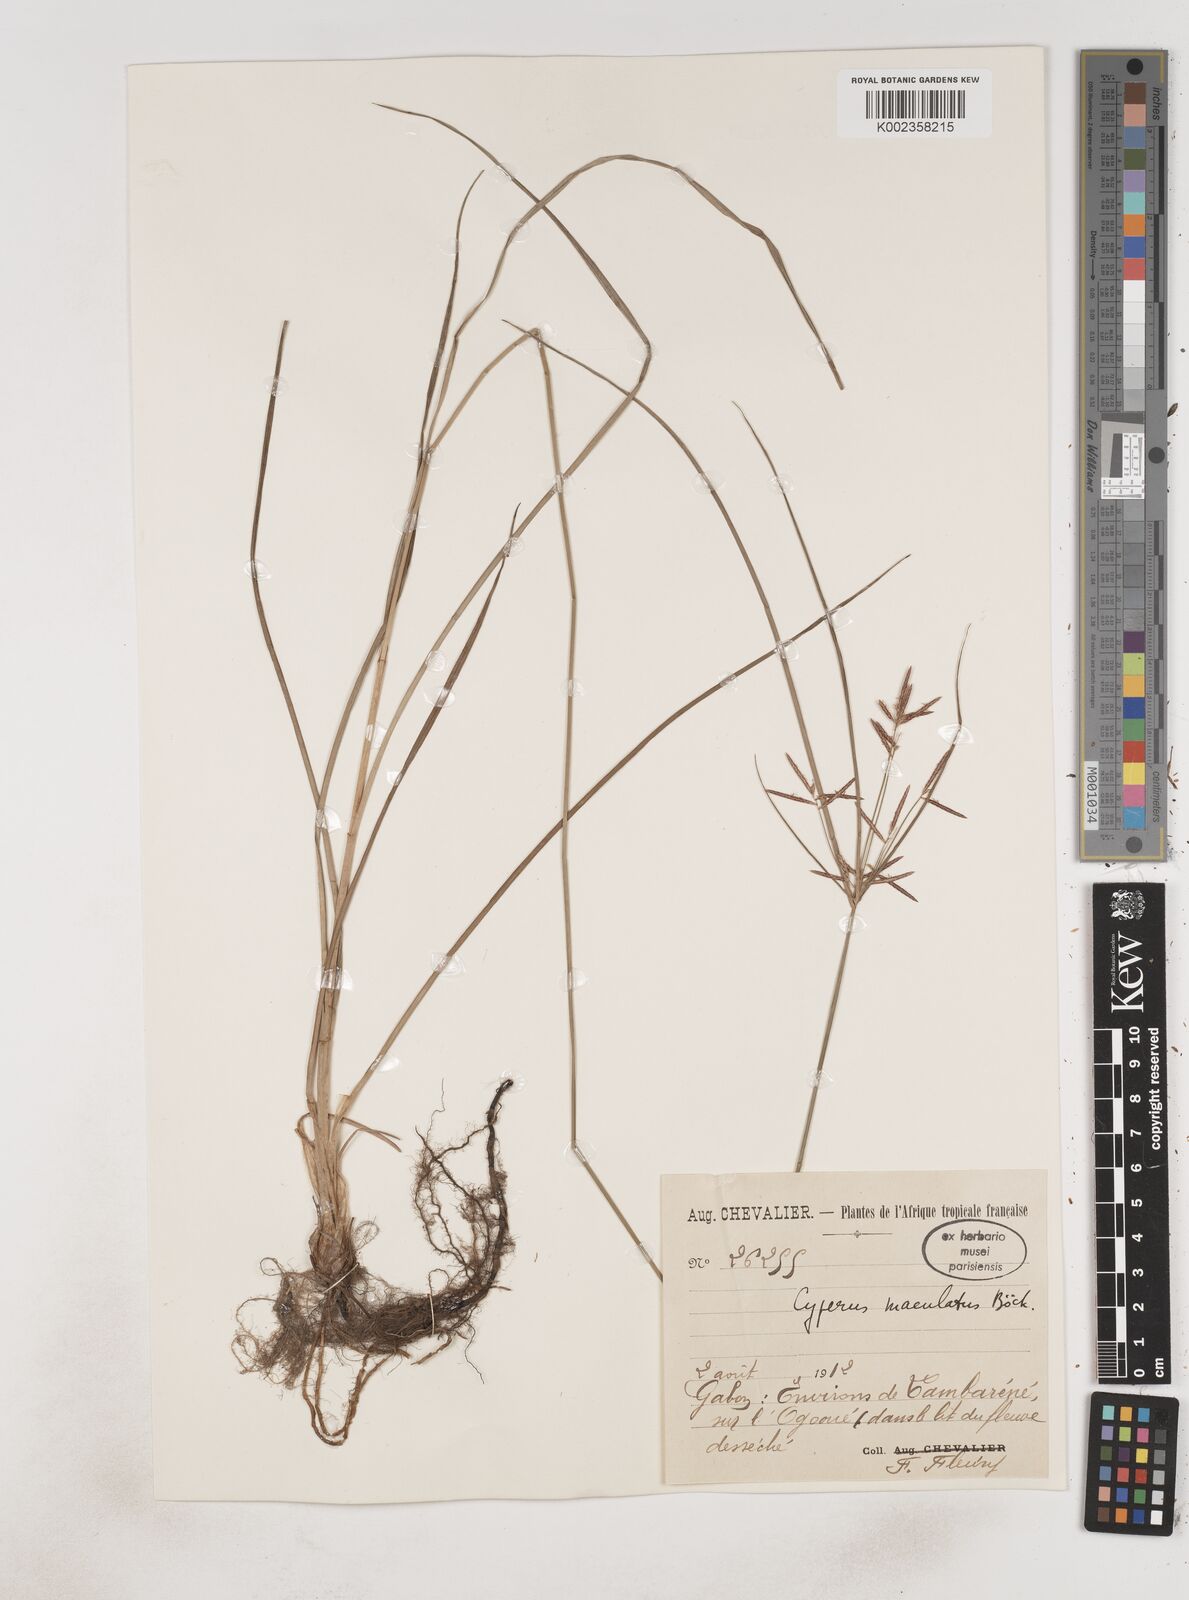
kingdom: Plantae
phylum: Tracheophyta
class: Liliopsida
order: Poales
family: Cyperaceae
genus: Cyperus
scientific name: Cyperus maculatus
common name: Maculated sedge
